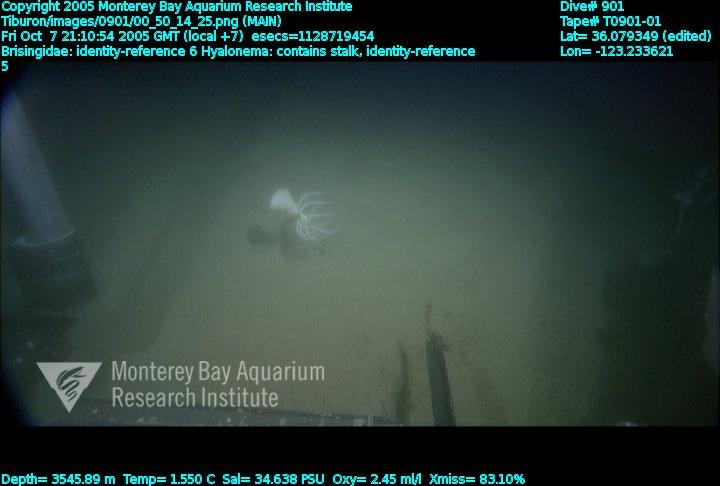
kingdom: Animalia
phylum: Porifera
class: Hexactinellida
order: Amphidiscosida
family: Hyalonematidae
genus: Hyalonema
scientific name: Hyalonema
